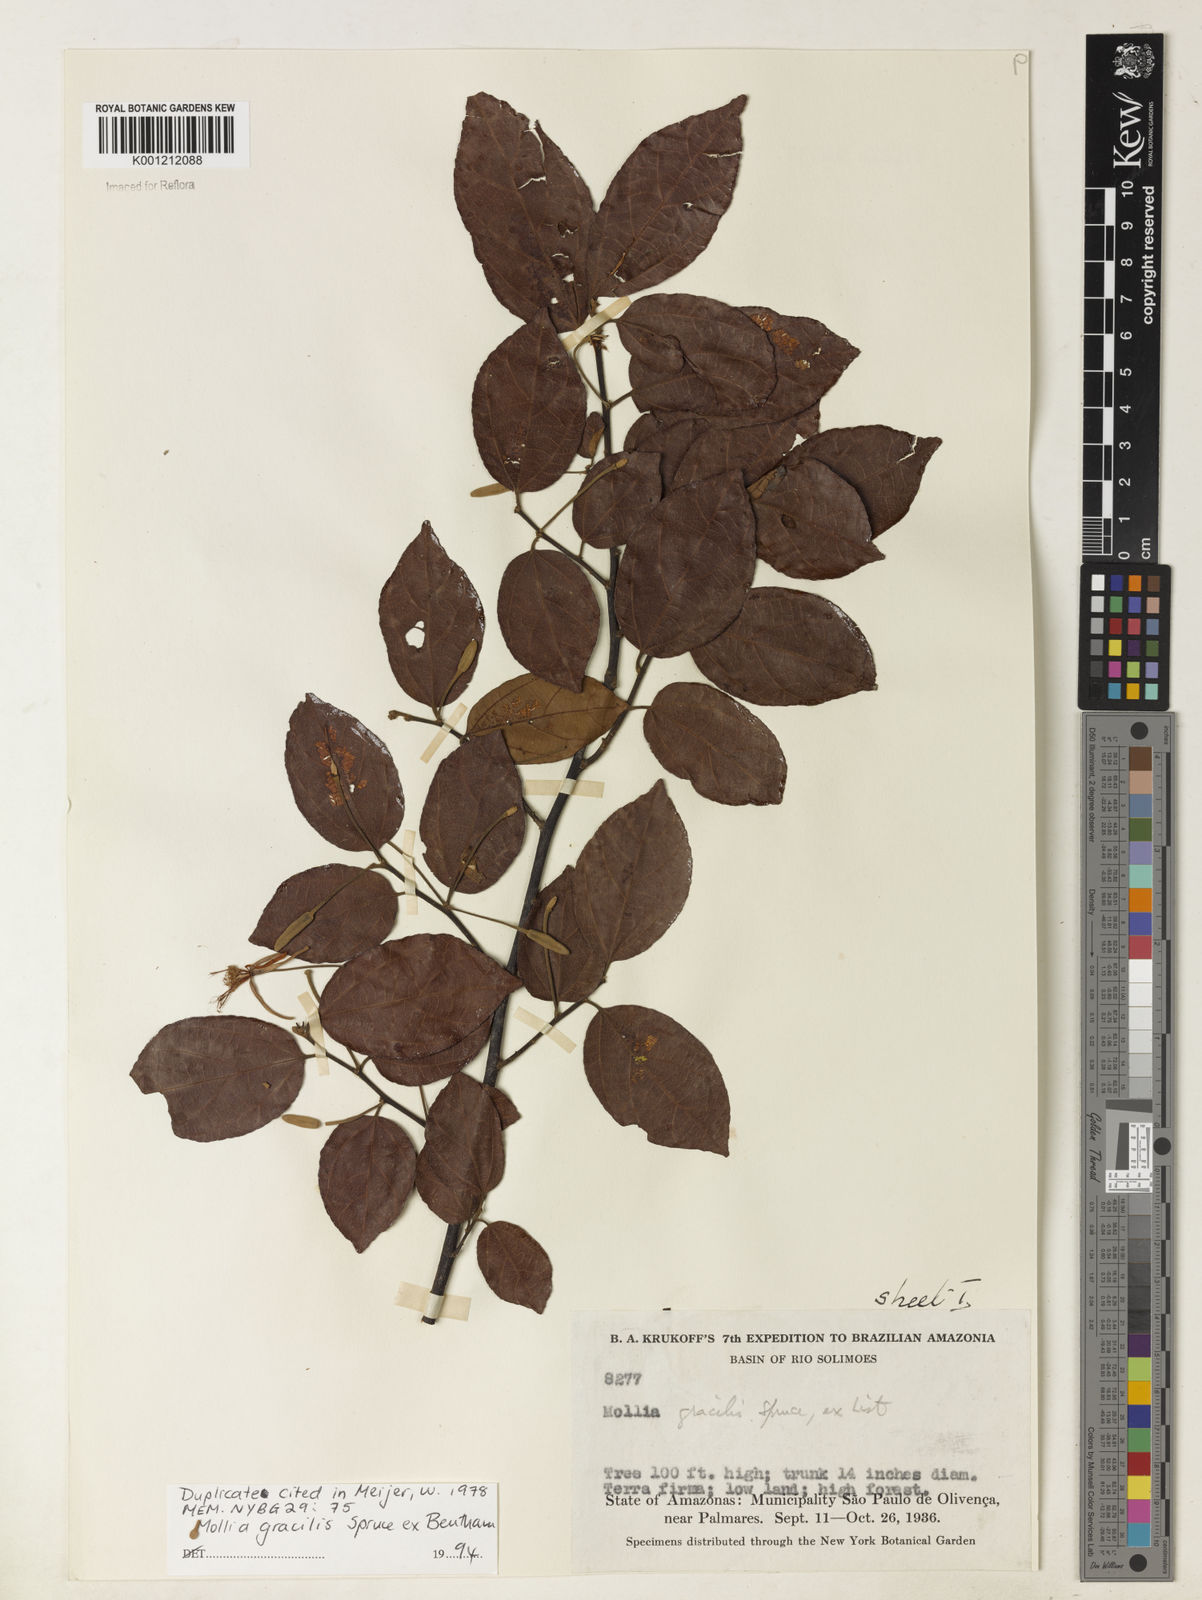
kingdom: Plantae
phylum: Tracheophyta
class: Magnoliopsida
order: Malvales
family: Malvaceae
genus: Mollia
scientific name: Mollia gracilis
